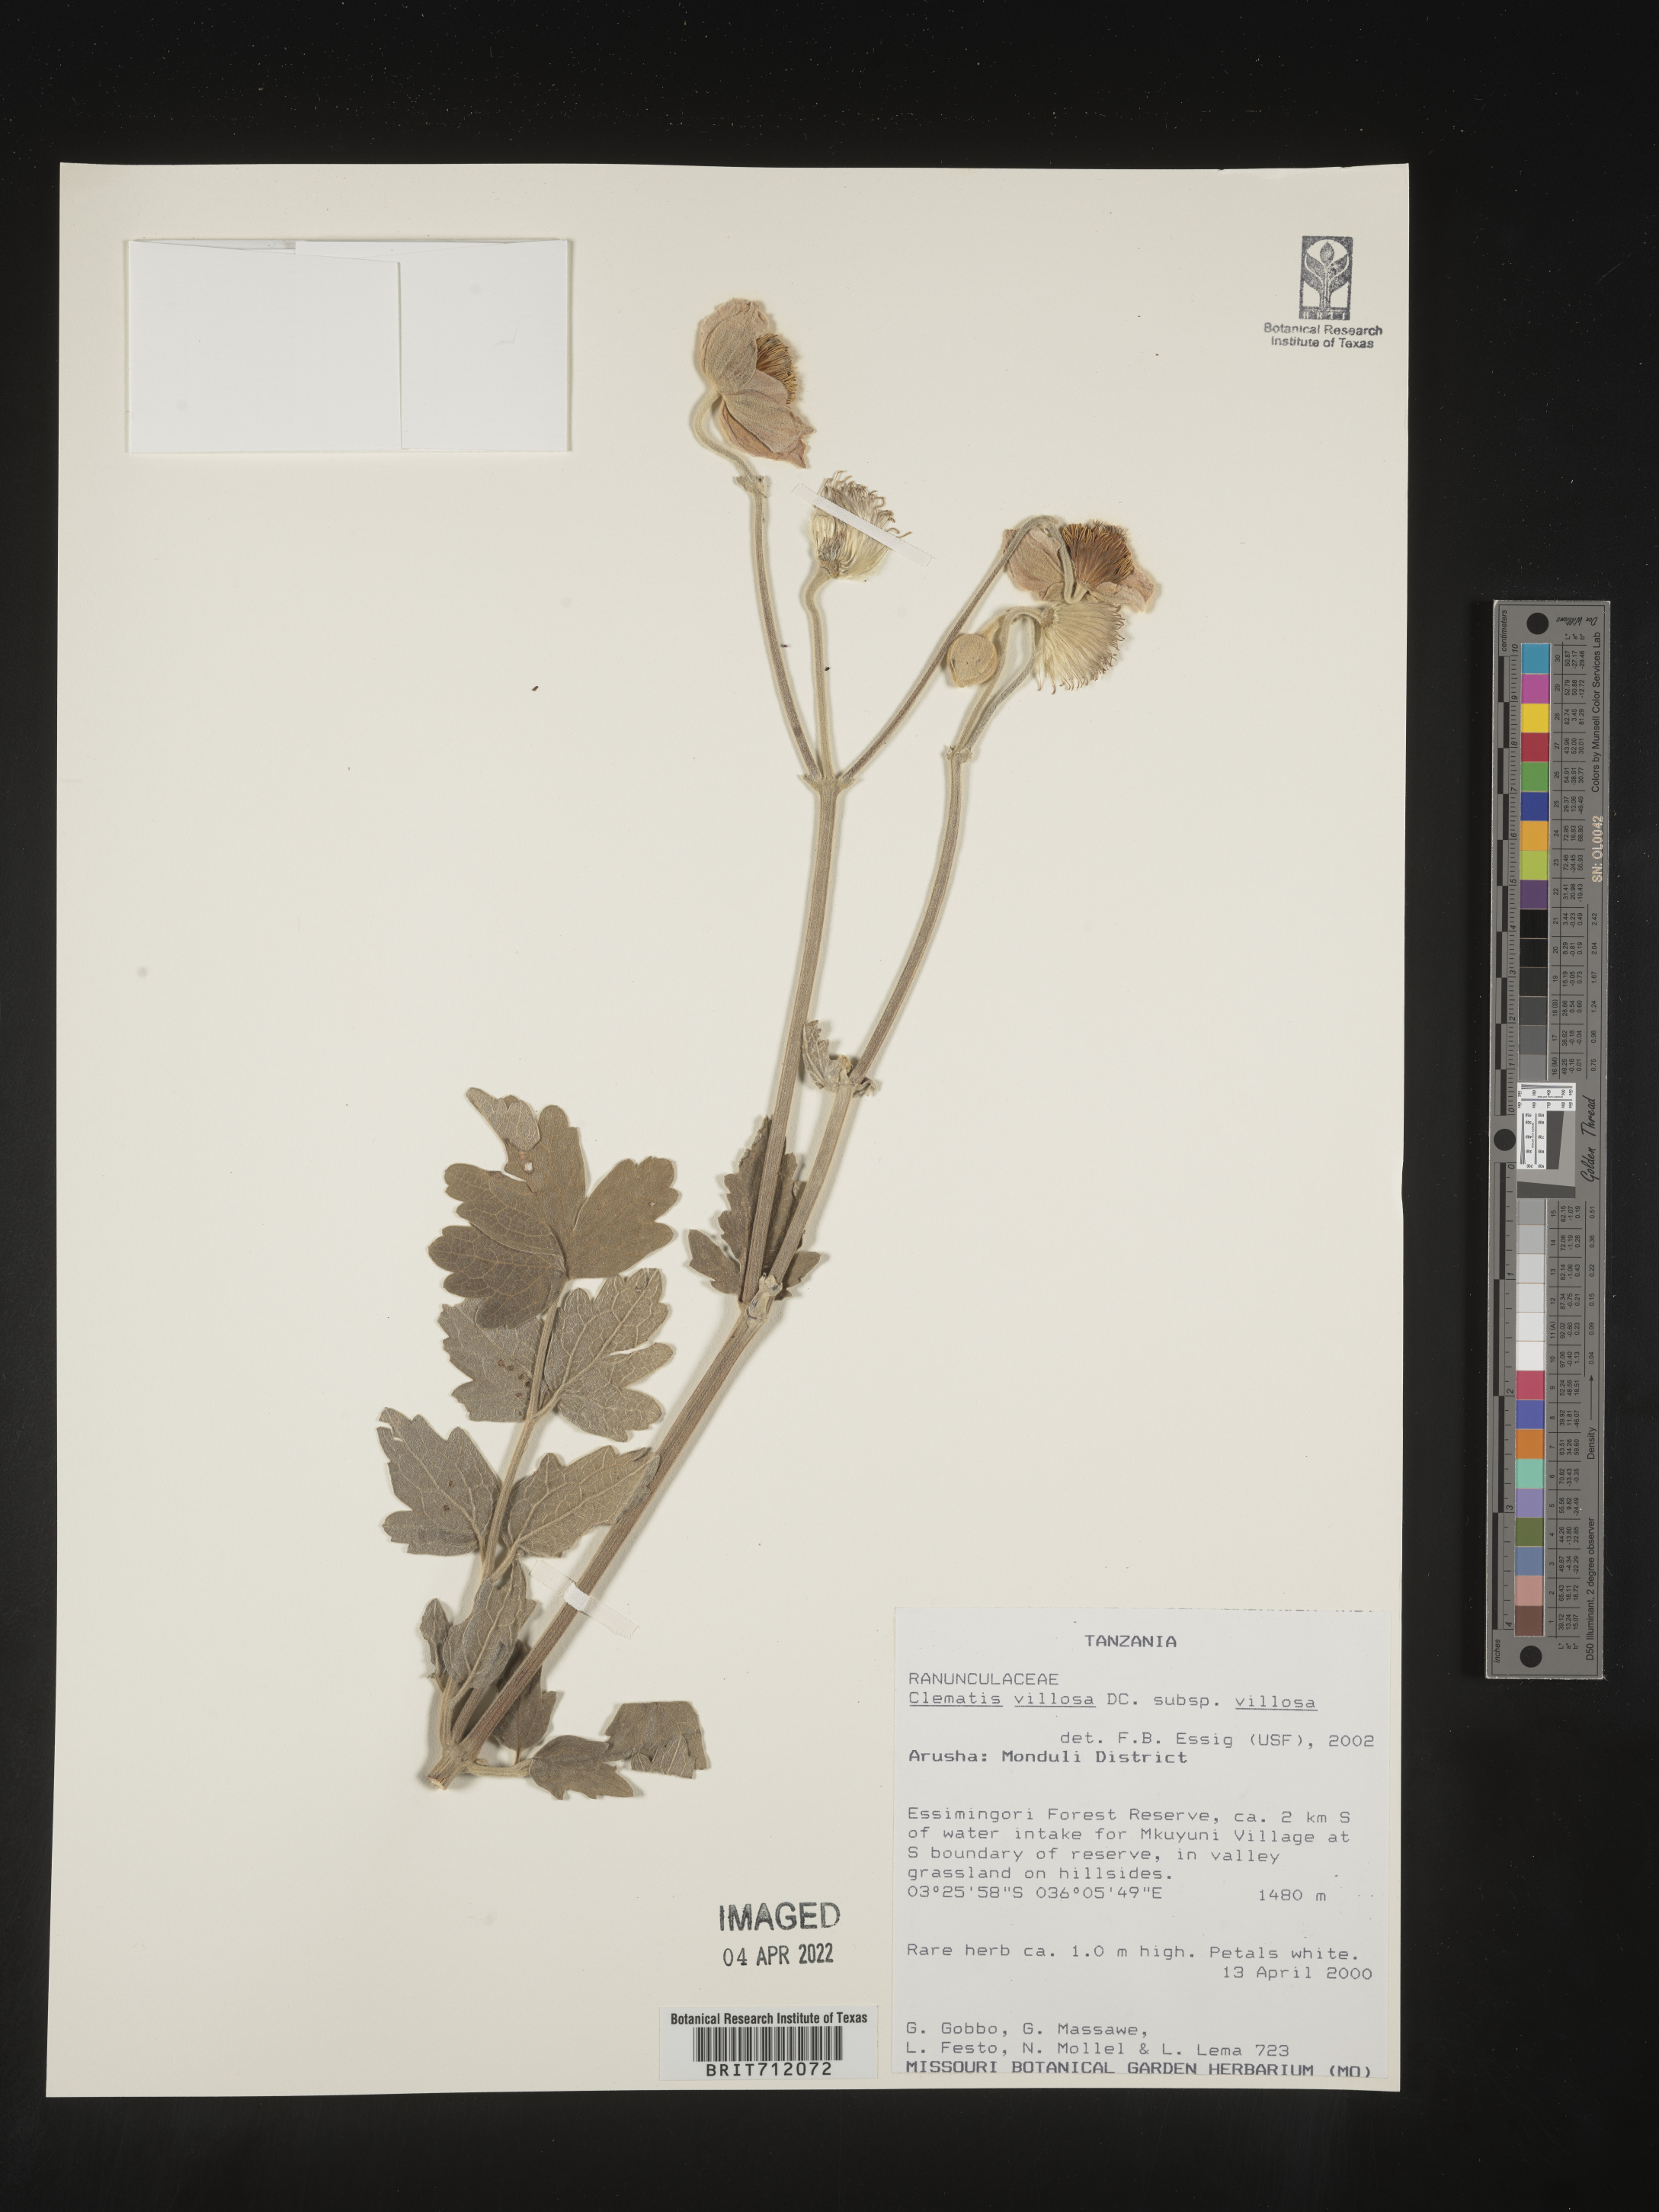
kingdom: Plantae
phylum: Tracheophyta
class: Magnoliopsida
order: Ranunculales
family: Ranunculaceae
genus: Clematis
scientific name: Clematis
